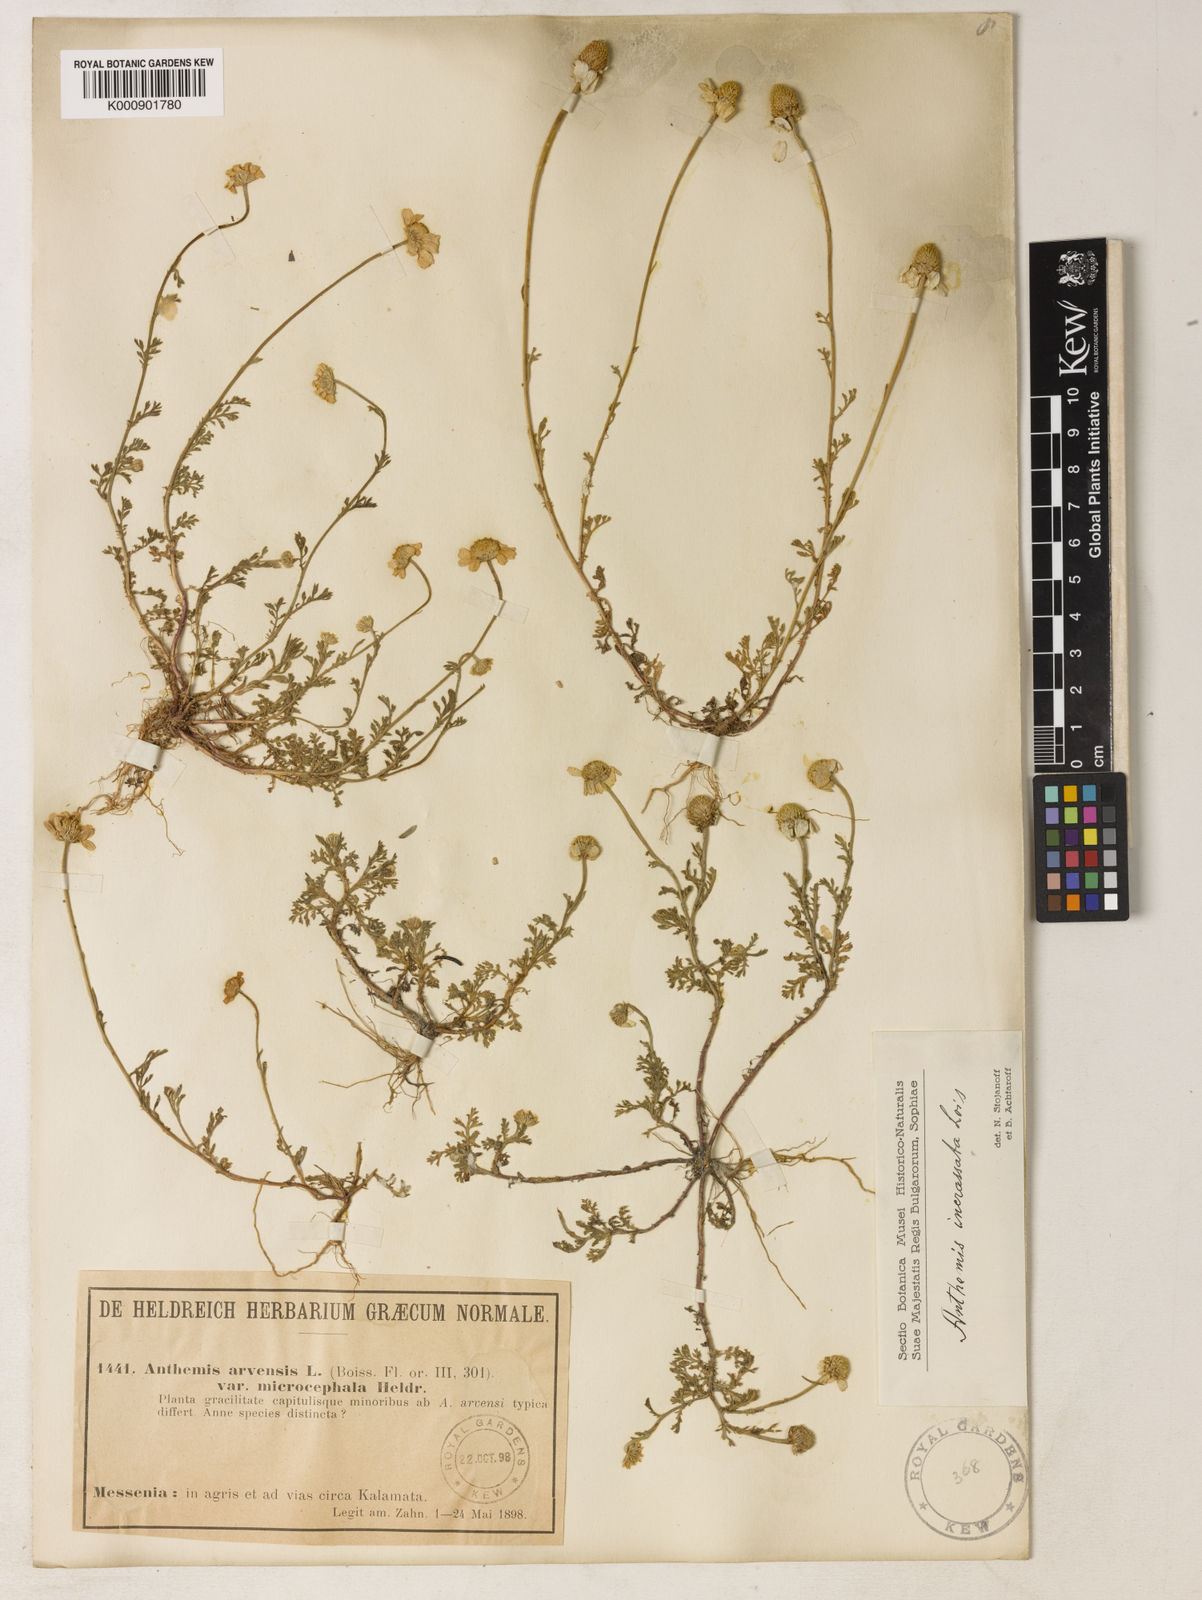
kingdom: Plantae
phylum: Tracheophyta
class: Magnoliopsida
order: Asterales
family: Asteraceae
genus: Anthemis
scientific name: Anthemis arvensis
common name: Corn chamomile
